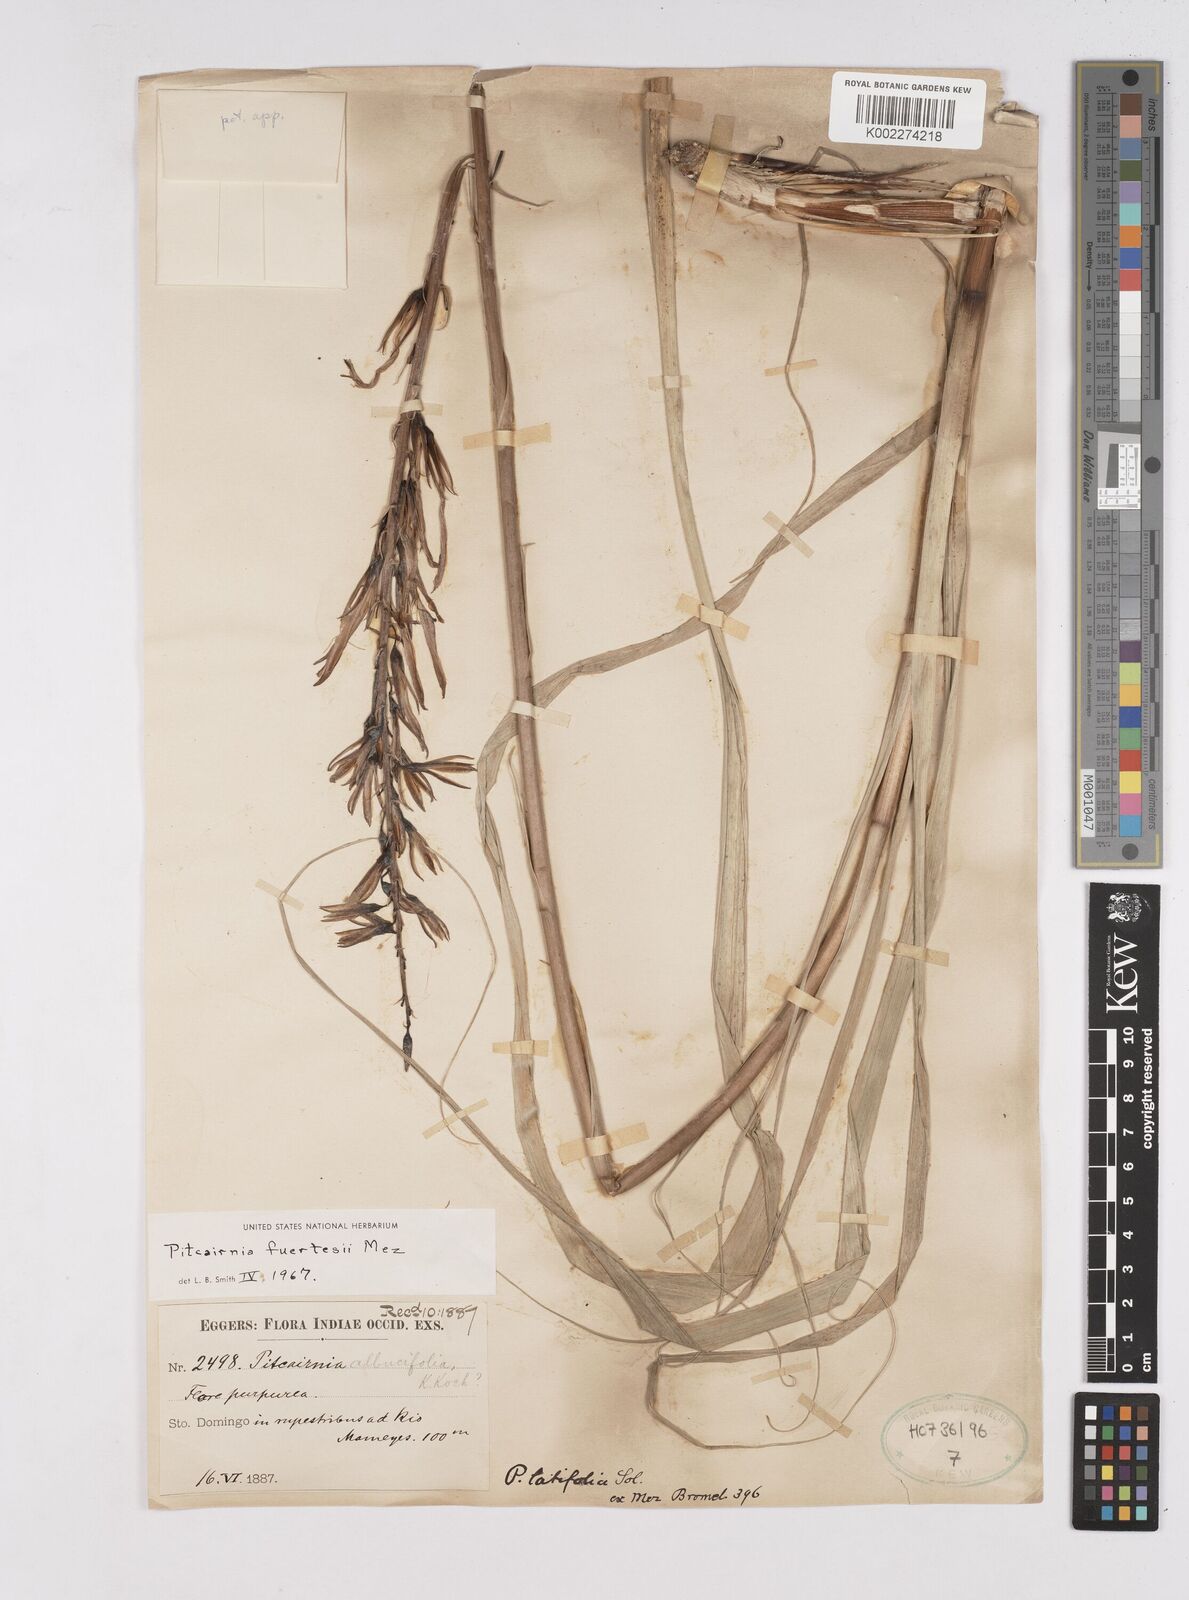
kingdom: Plantae
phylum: Tracheophyta
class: Liliopsida
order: Poales
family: Bromeliaceae
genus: Pitcairnia
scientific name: Pitcairnia fuertesii
